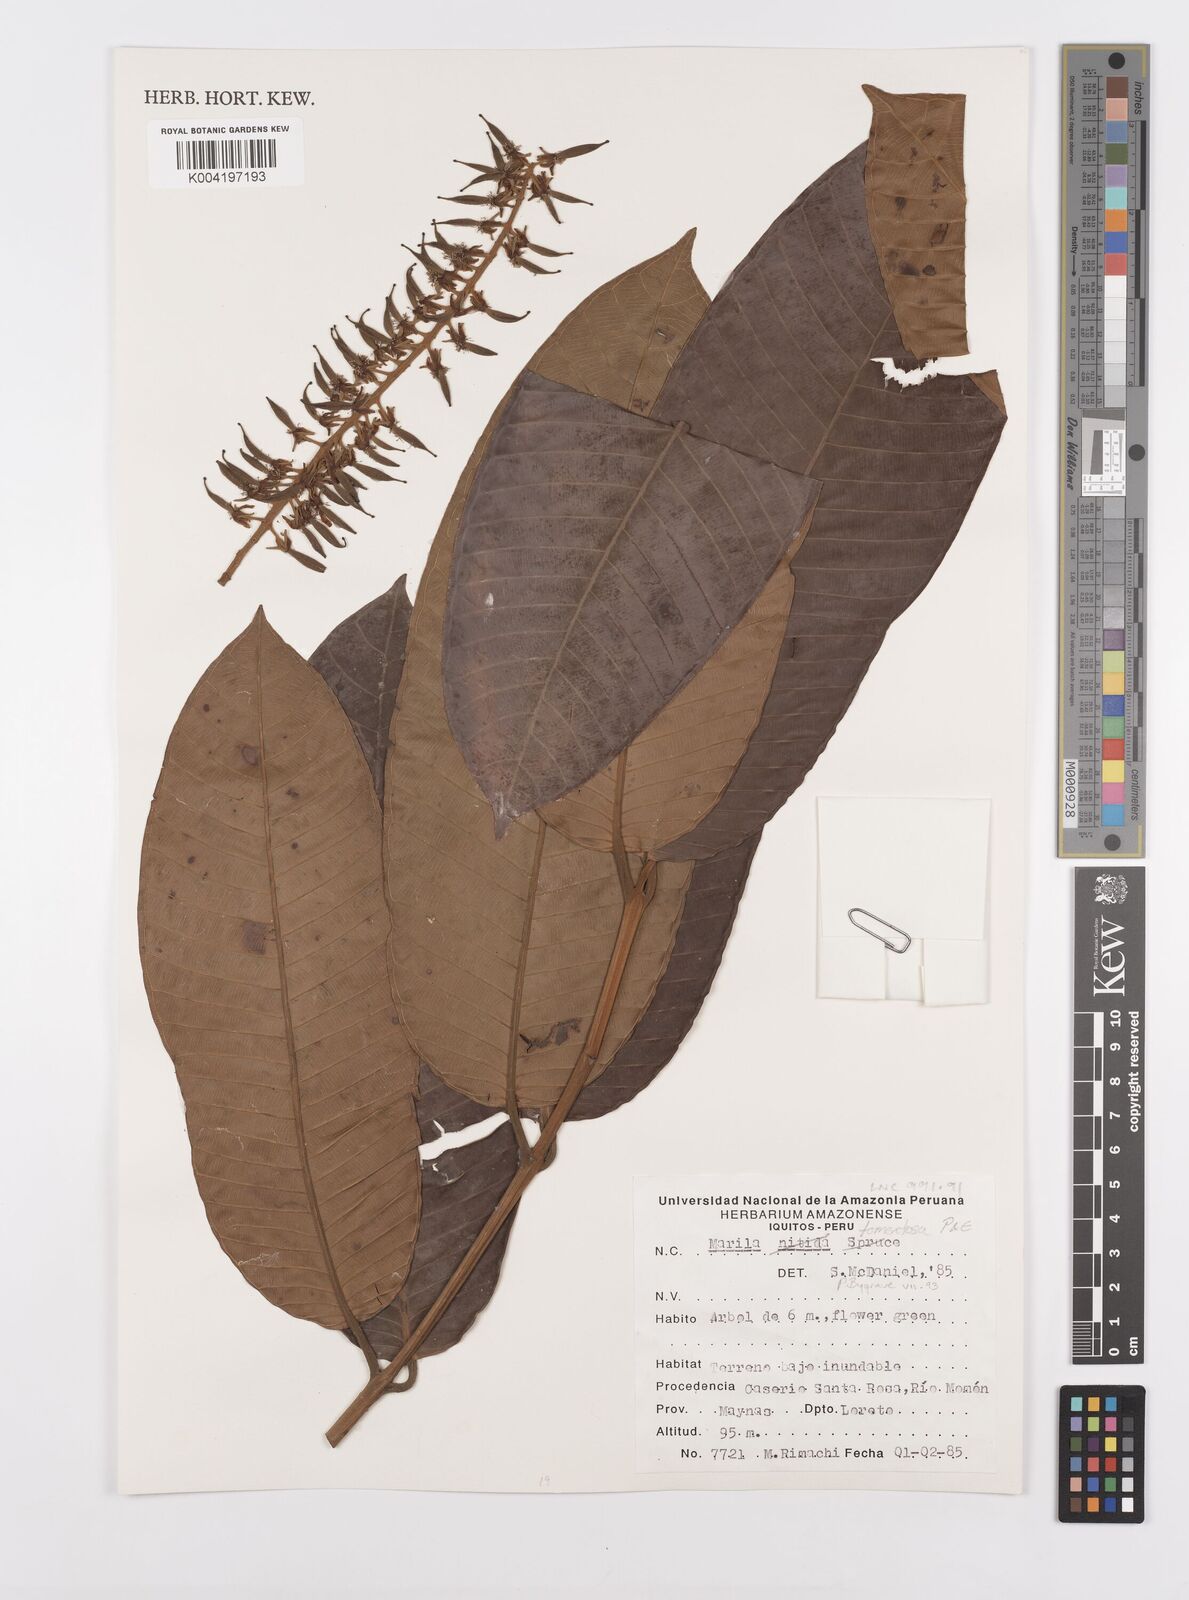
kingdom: Plantae
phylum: Tracheophyta
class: Magnoliopsida
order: Malpighiales
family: Calophyllaceae
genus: Marila
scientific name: Marila tomentosa
